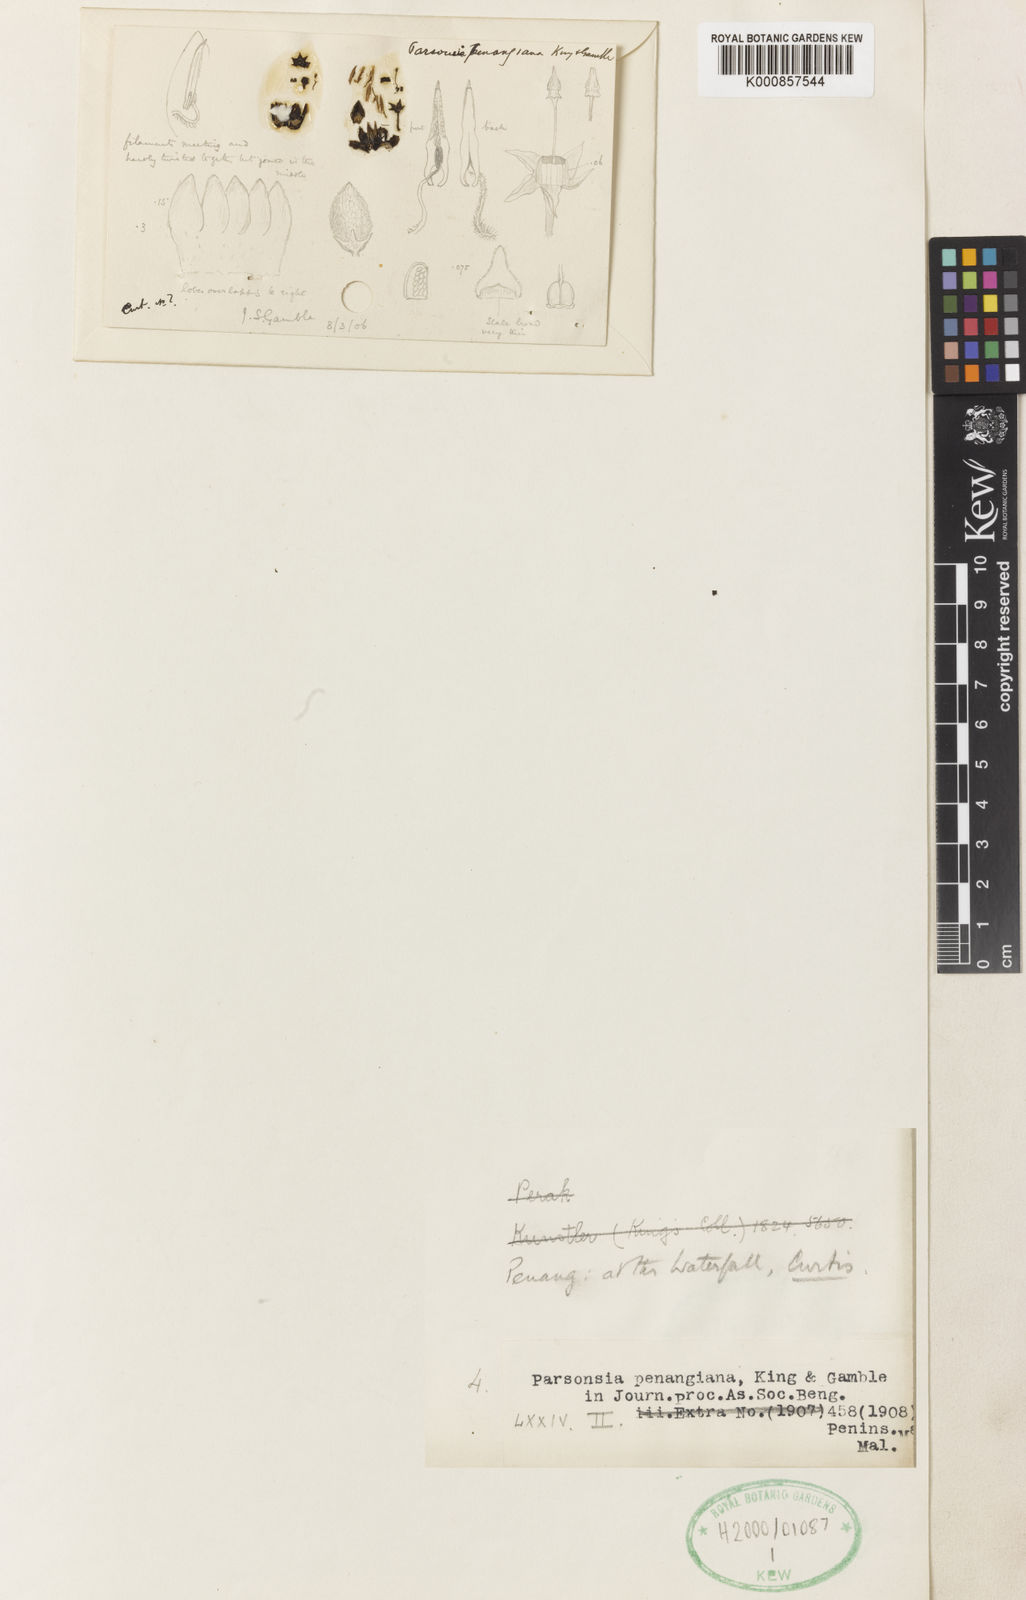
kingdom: Plantae
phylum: Tracheophyta
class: Magnoliopsida
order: Gentianales
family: Apocynaceae
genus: Parsonsia
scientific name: Parsonsia penangiana
